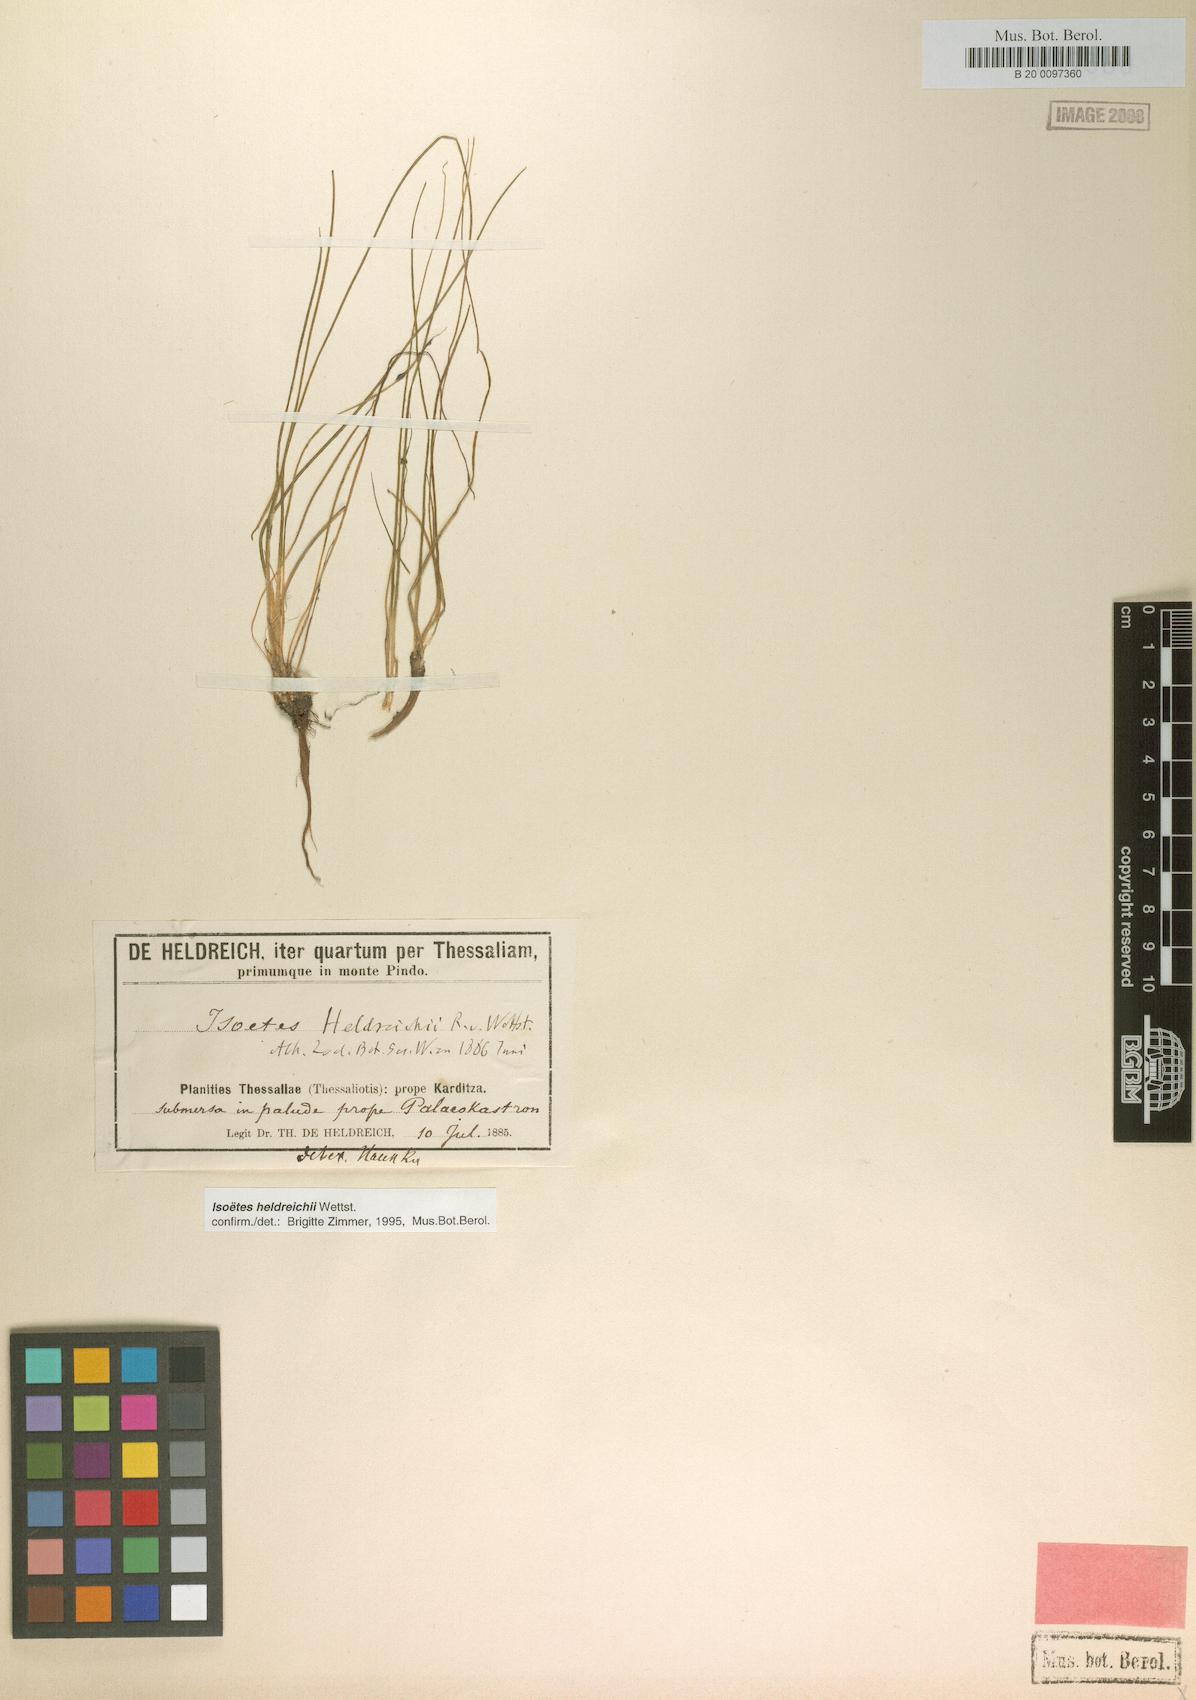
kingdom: Plantae
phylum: Tracheophyta
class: Lycopodiopsida
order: Isoetales
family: Isoetaceae
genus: Isoetes
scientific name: Isoetes heldreichii
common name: Pindus quillwort
